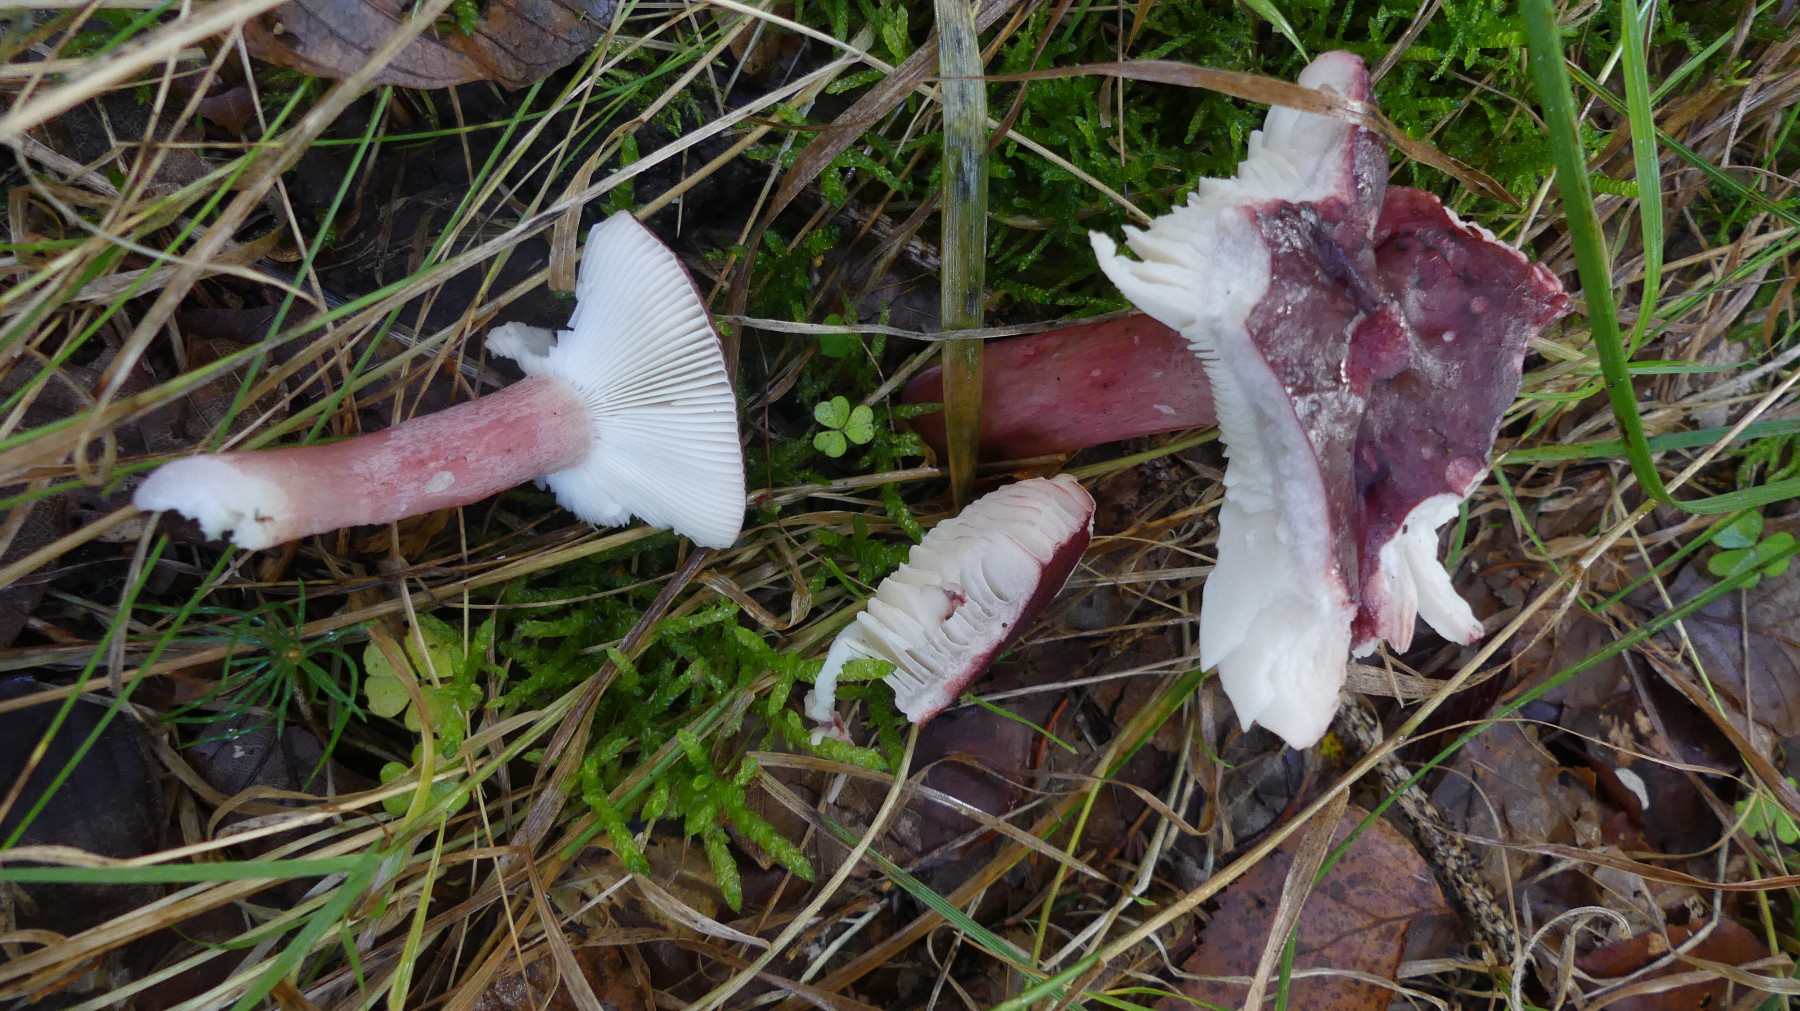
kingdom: Fungi
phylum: Basidiomycota
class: Agaricomycetes
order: Russulales
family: Russulaceae
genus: Russula
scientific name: Russula queletii
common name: Quélets skørhat
